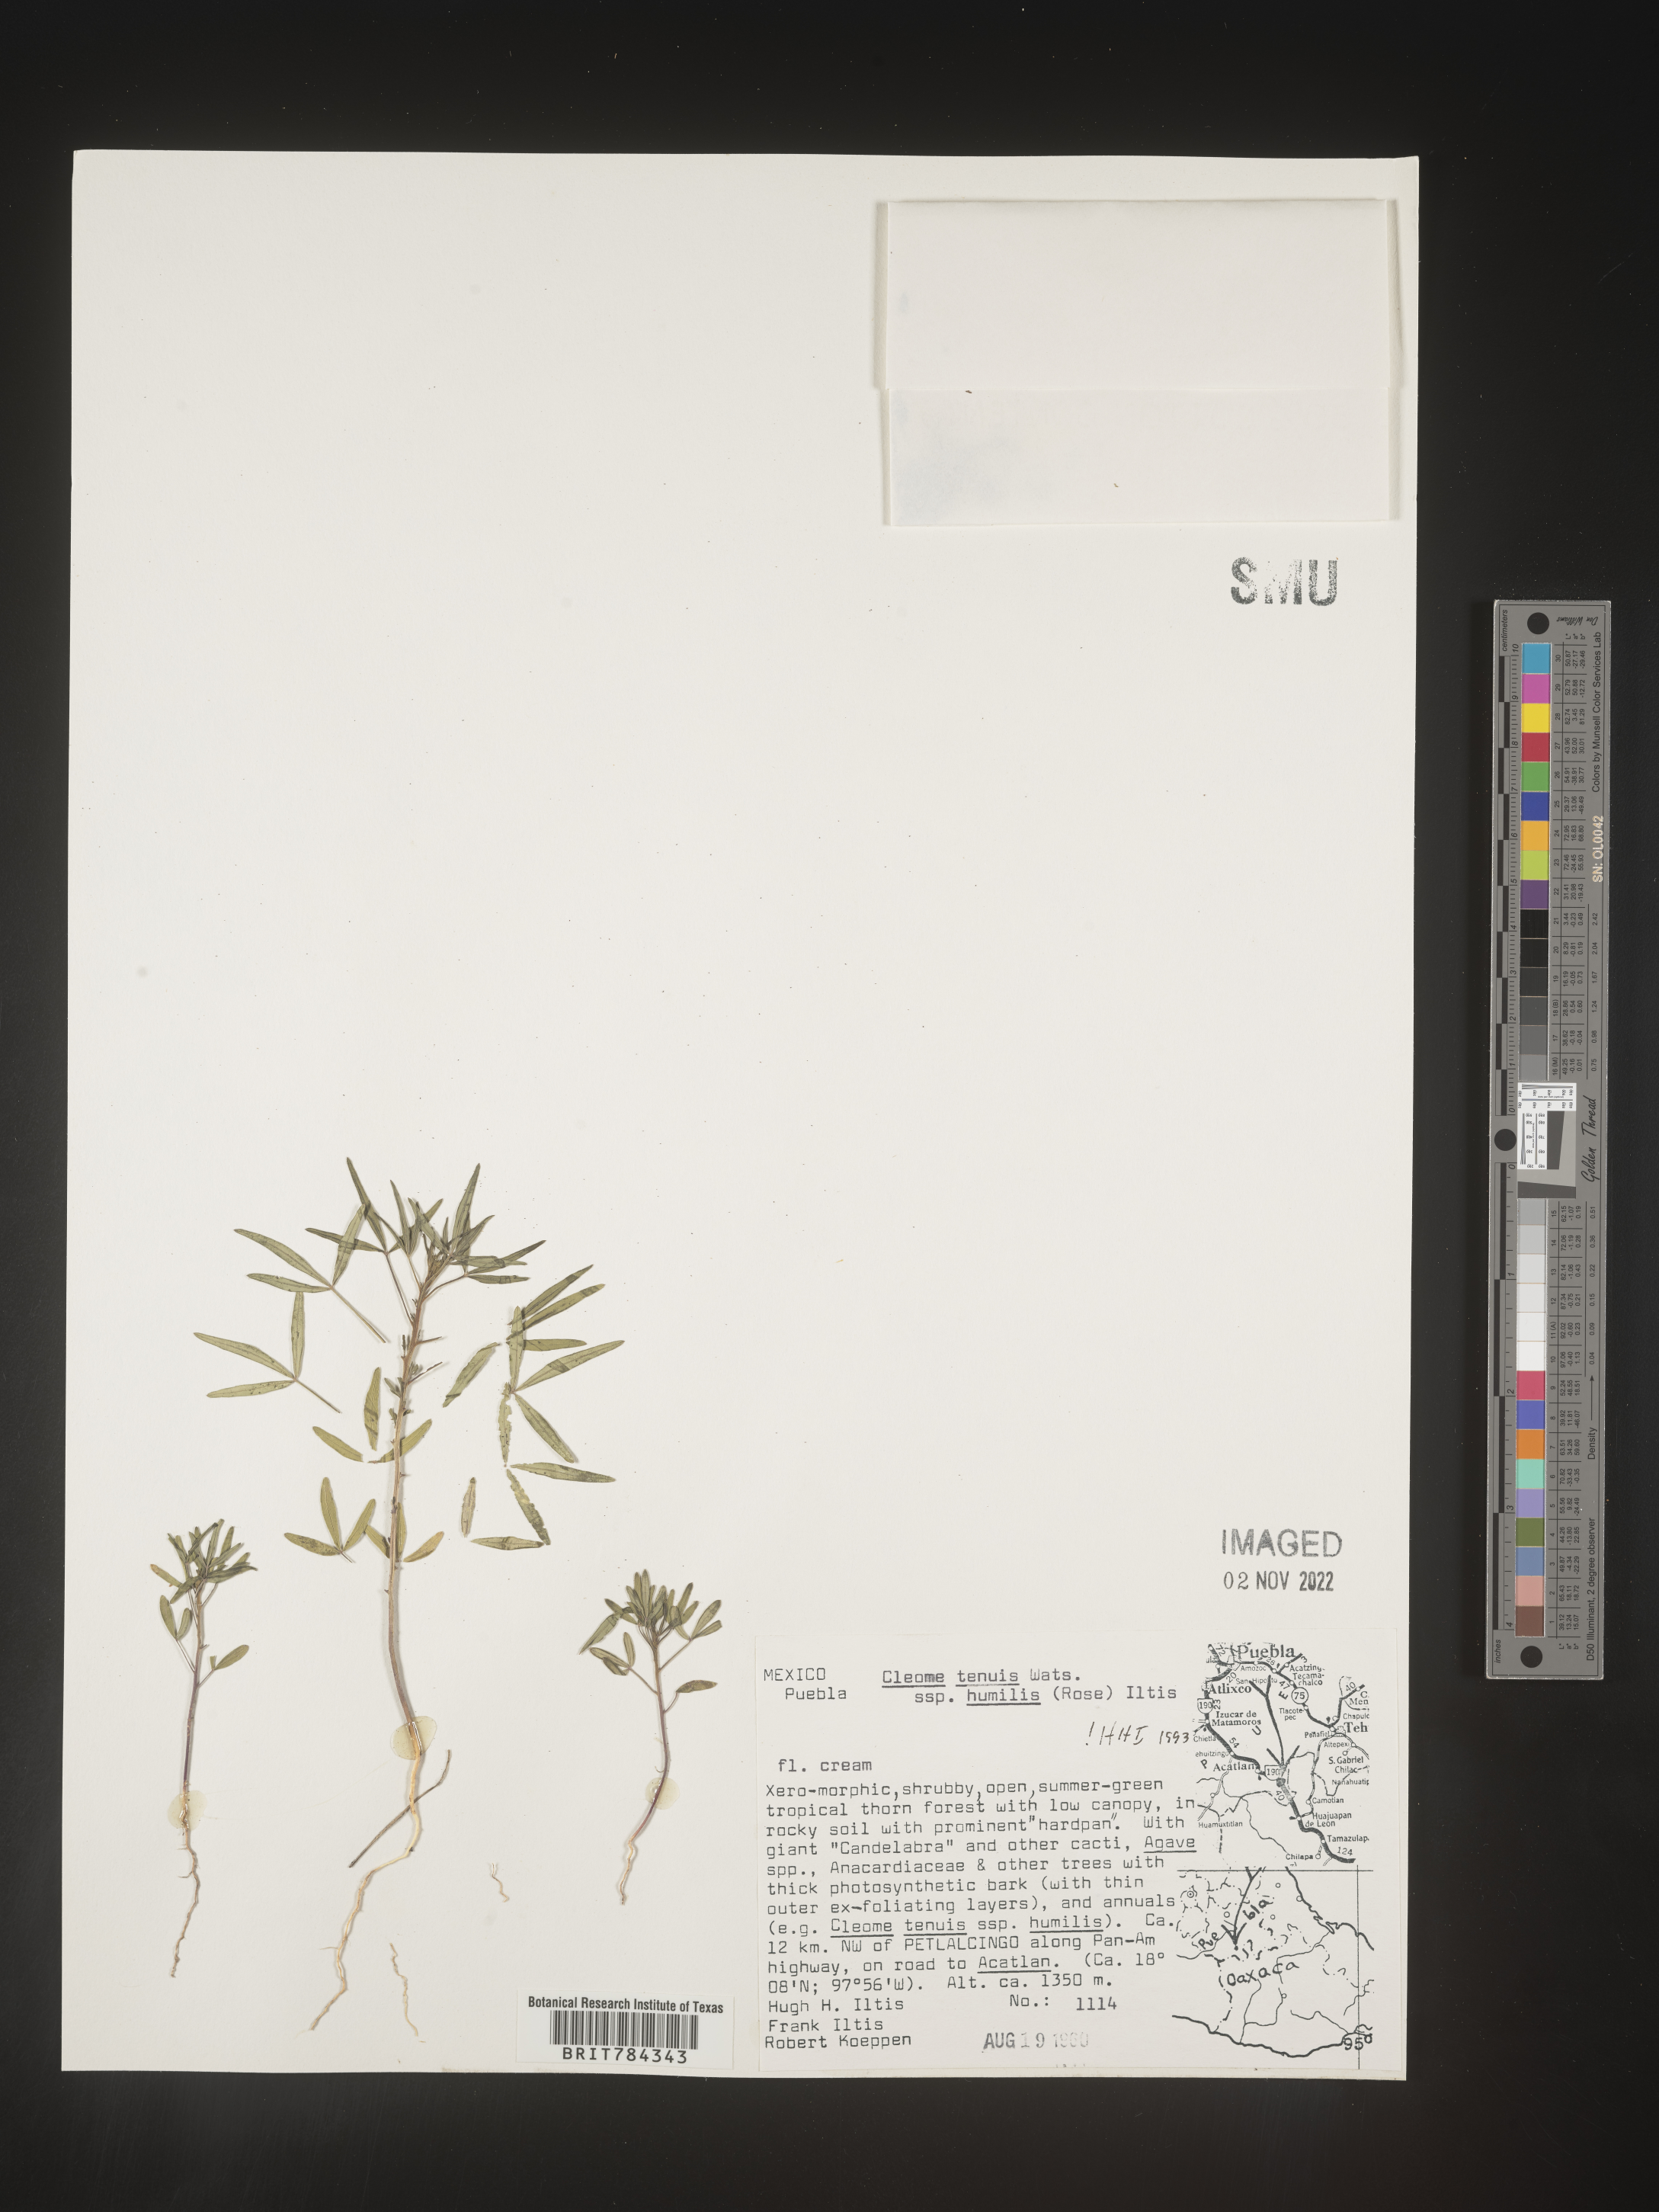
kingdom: Plantae
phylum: Tracheophyta
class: Magnoliopsida
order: Brassicales
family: Cleomaceae
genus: Cleome
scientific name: Cleome
